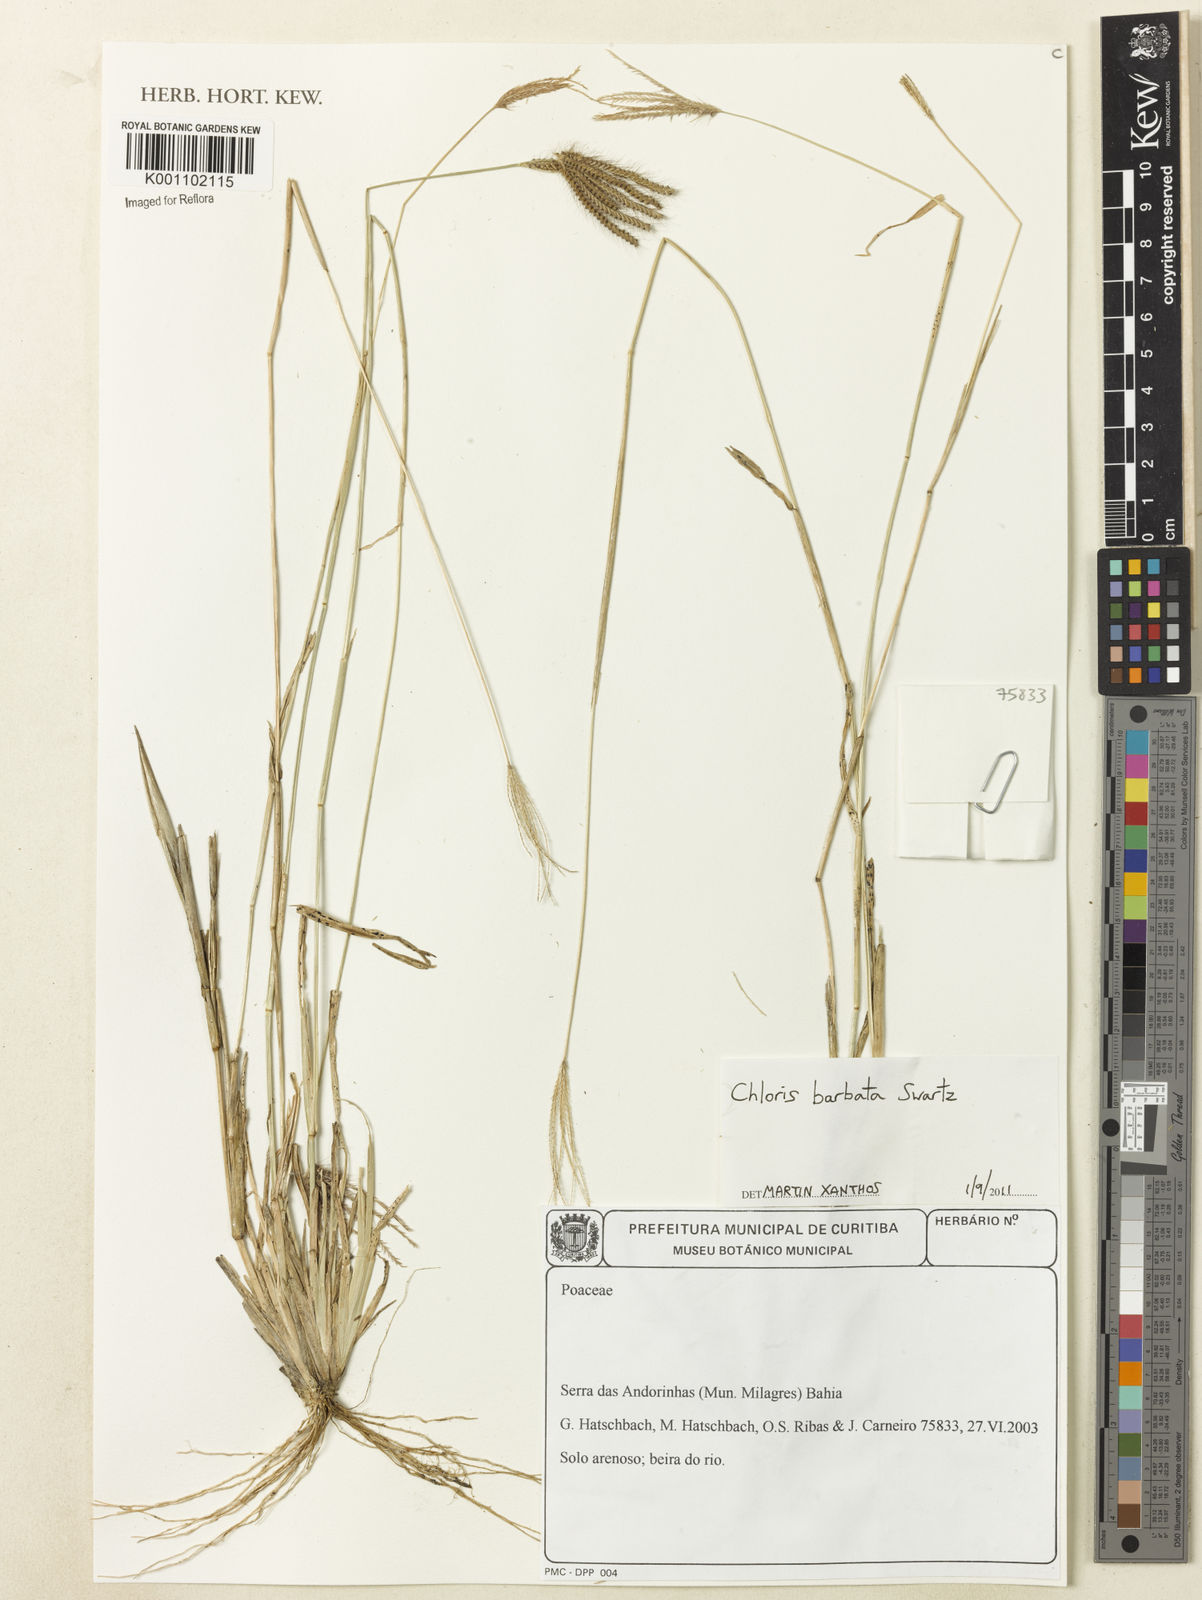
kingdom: Plantae
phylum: Tracheophyta
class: Liliopsida
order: Poales
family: Poaceae
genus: Chloris
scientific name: Chloris barbata
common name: Swollen fingergrass
